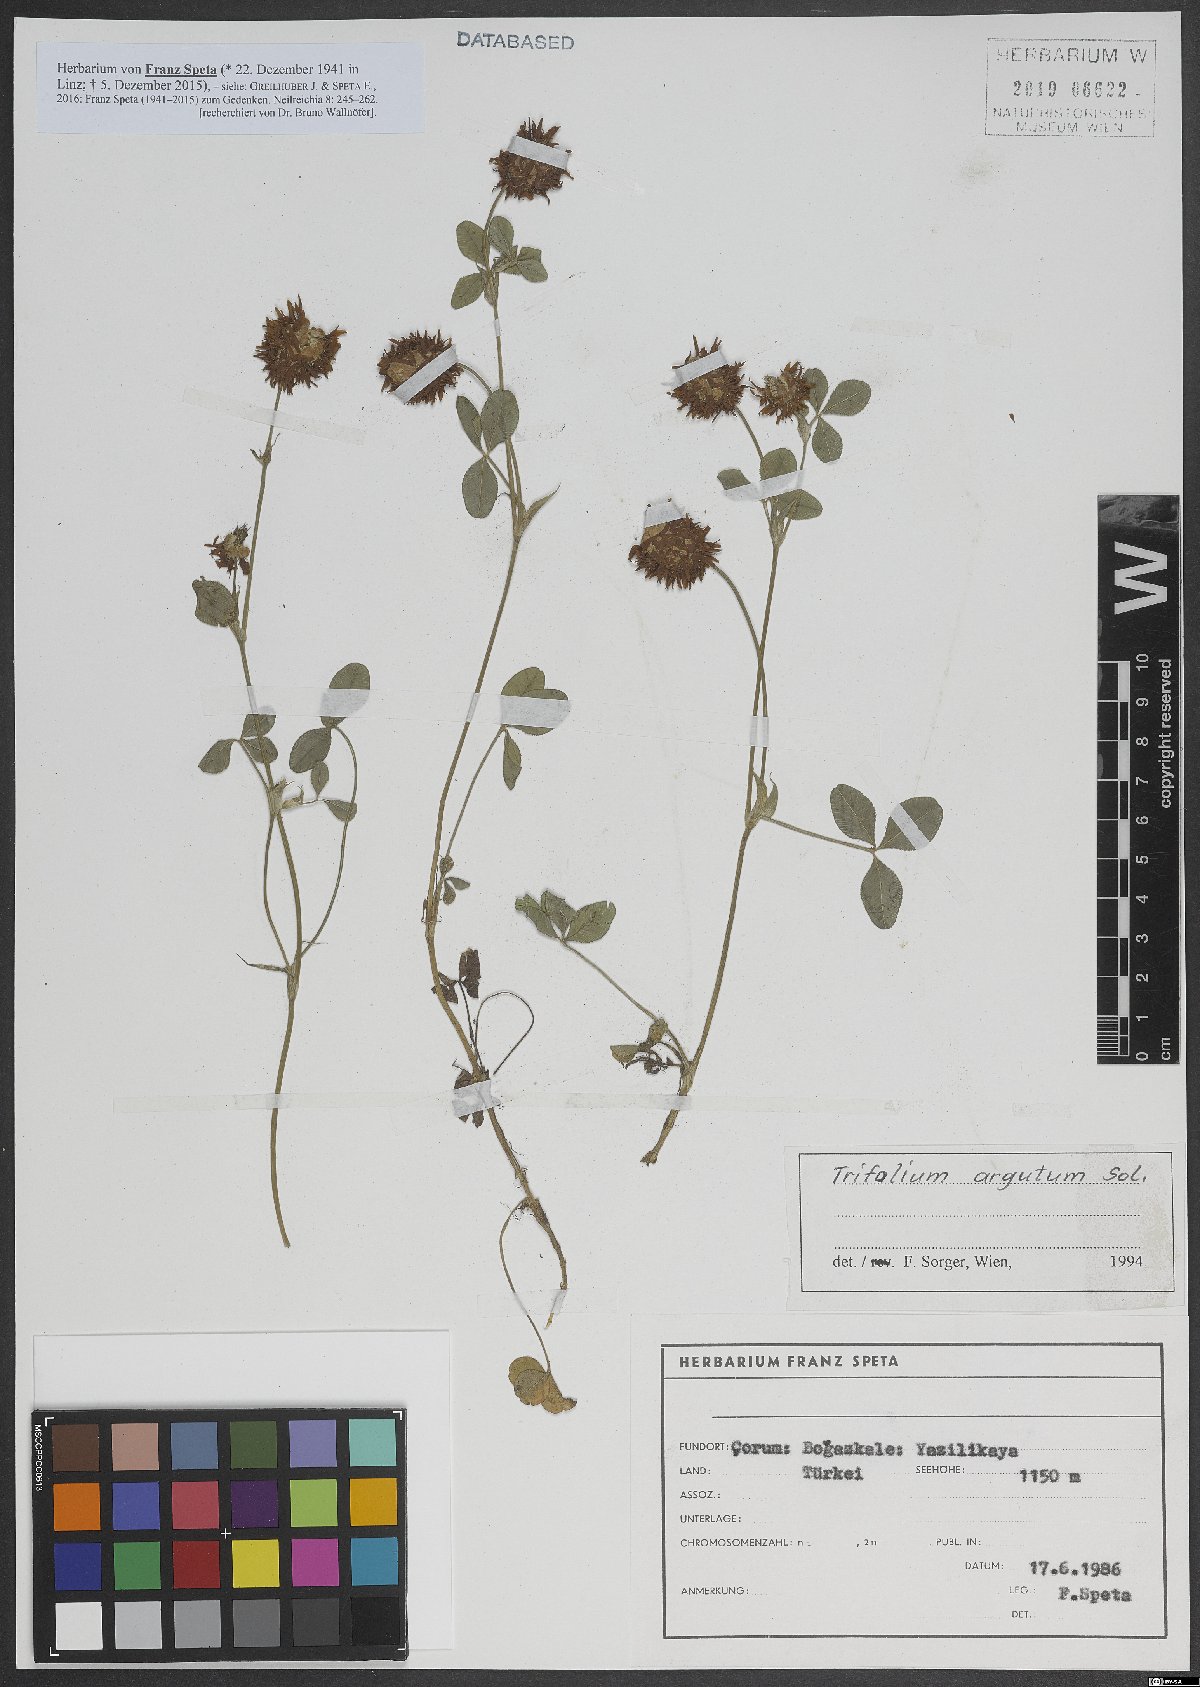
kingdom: Plantae
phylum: Tracheophyta
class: Magnoliopsida
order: Fabales
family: Fabaceae
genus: Trifolium
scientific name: Trifolium argutum
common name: Sharp-tooth clover
